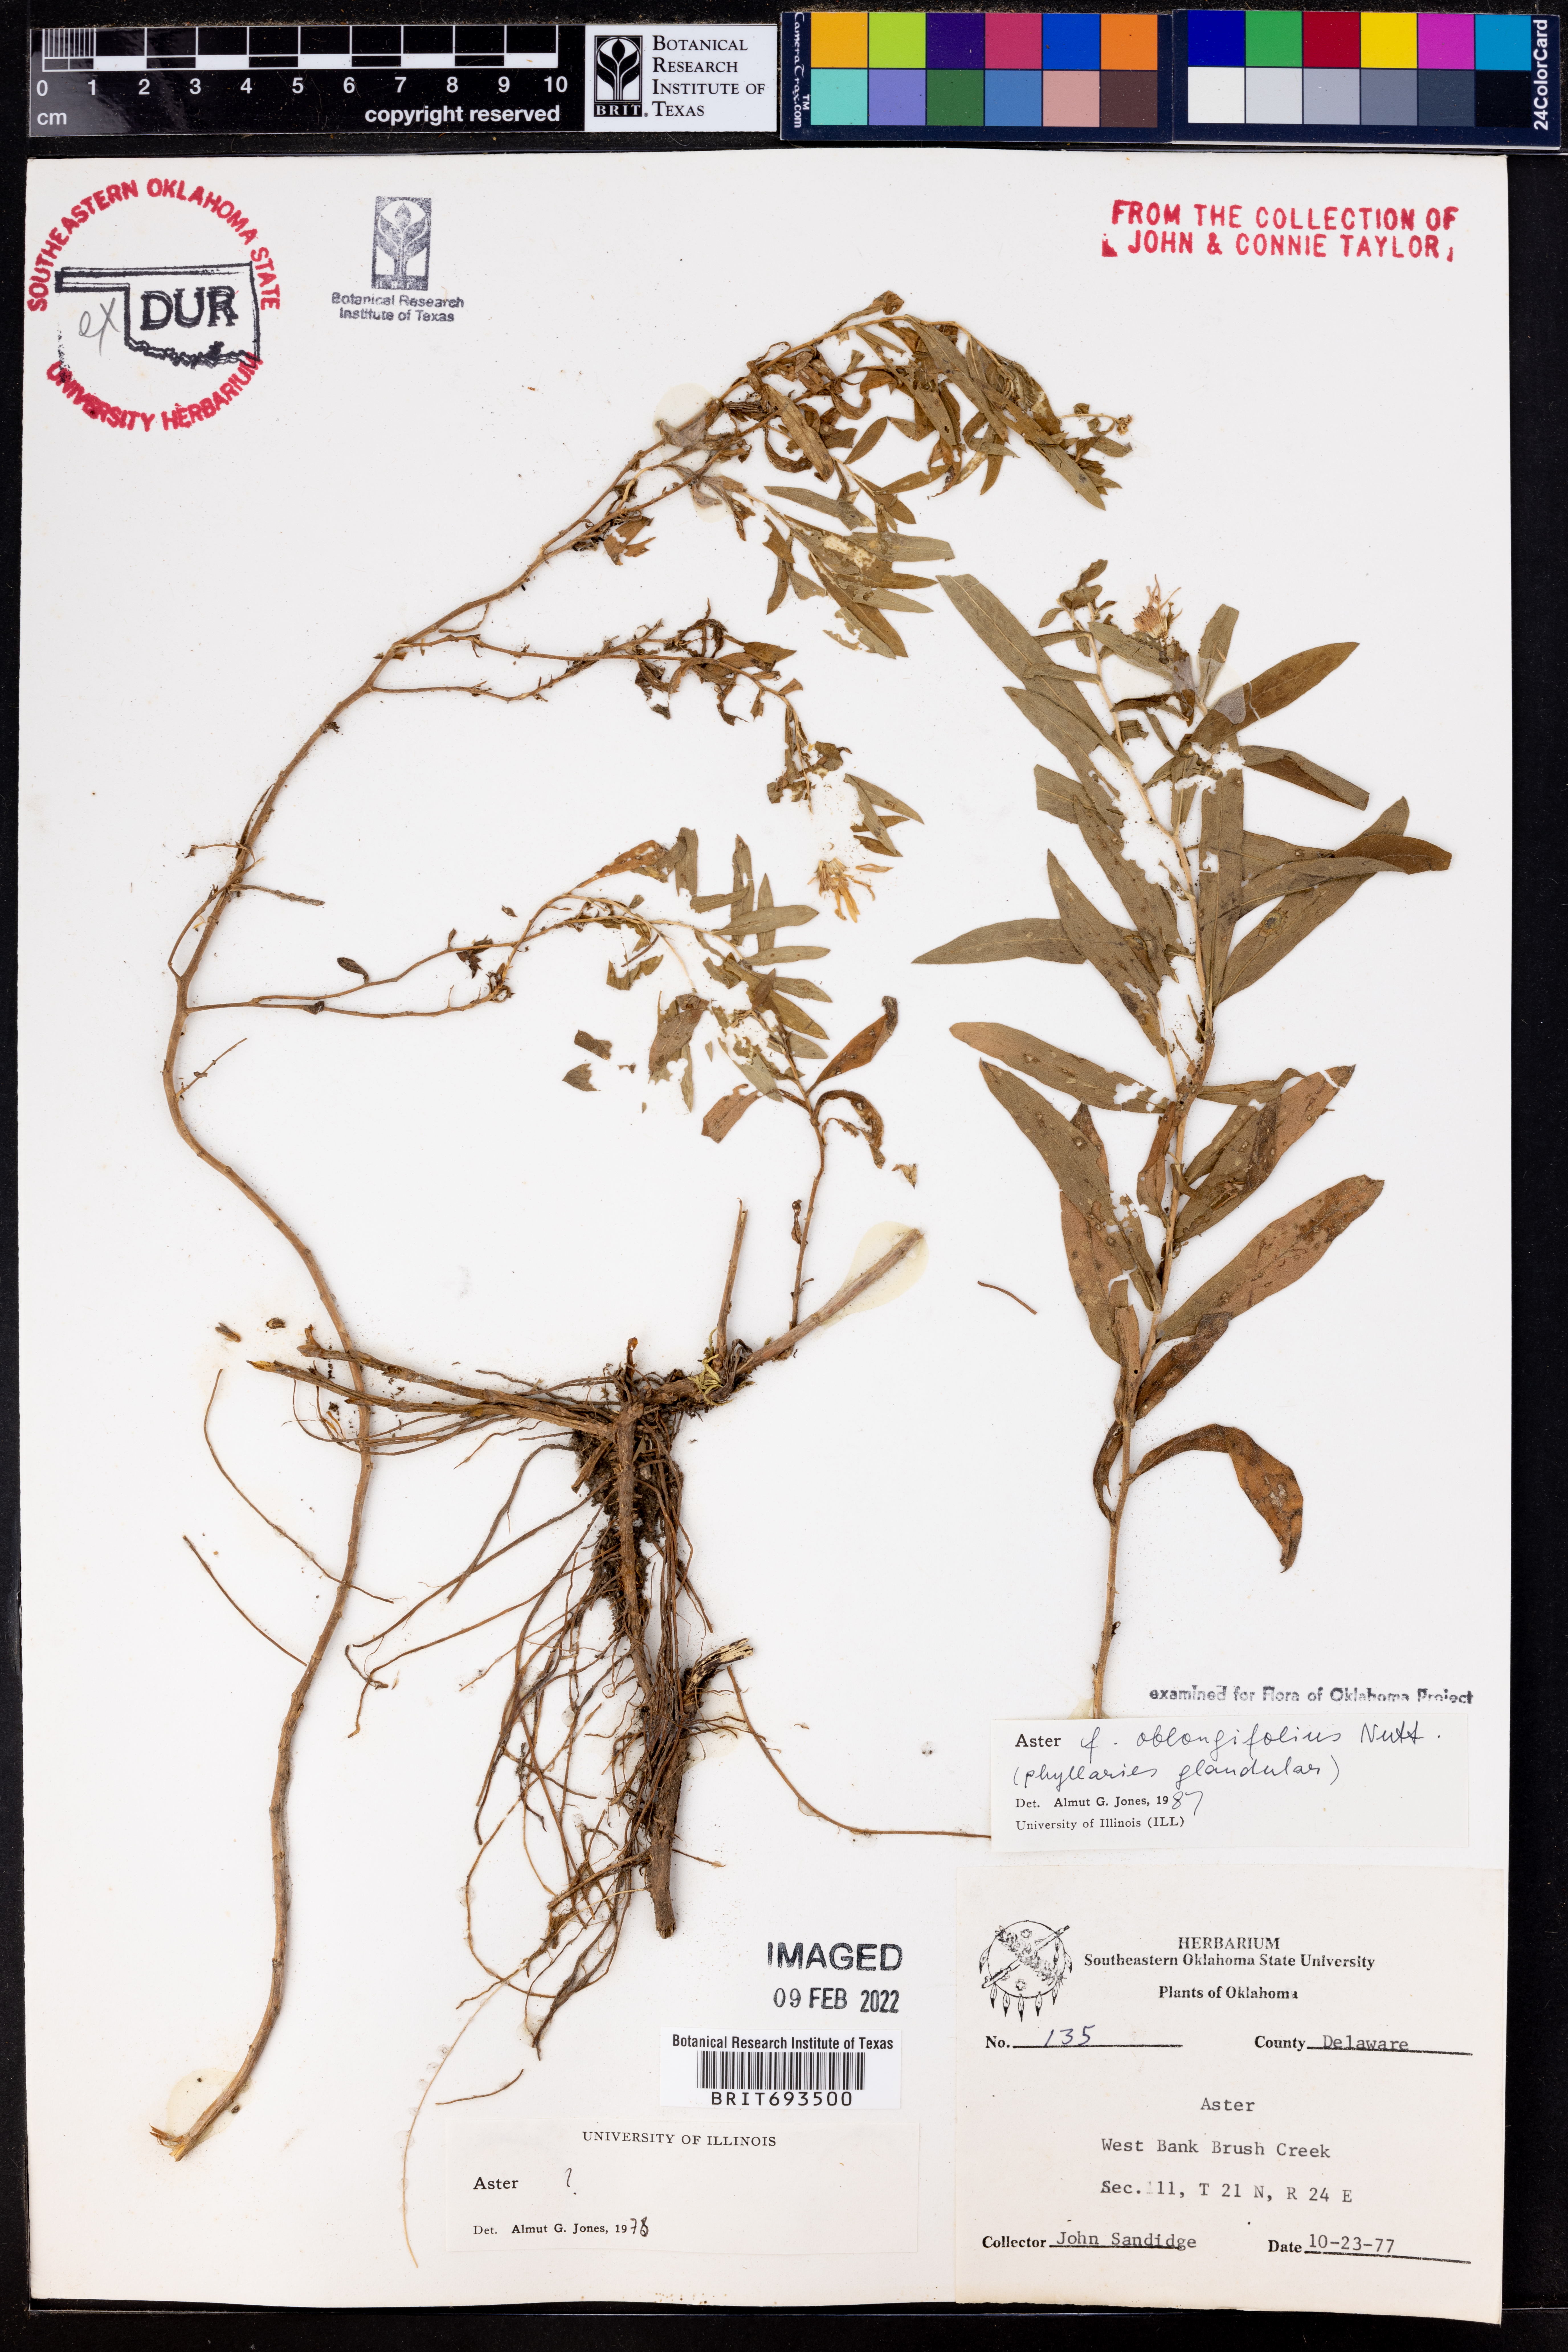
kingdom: Plantae
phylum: Tracheophyta
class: Magnoliopsida
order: Asterales
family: Asteraceae
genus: Symphyotrichum
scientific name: Symphyotrichum oblongifolium
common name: Aromatic aster
